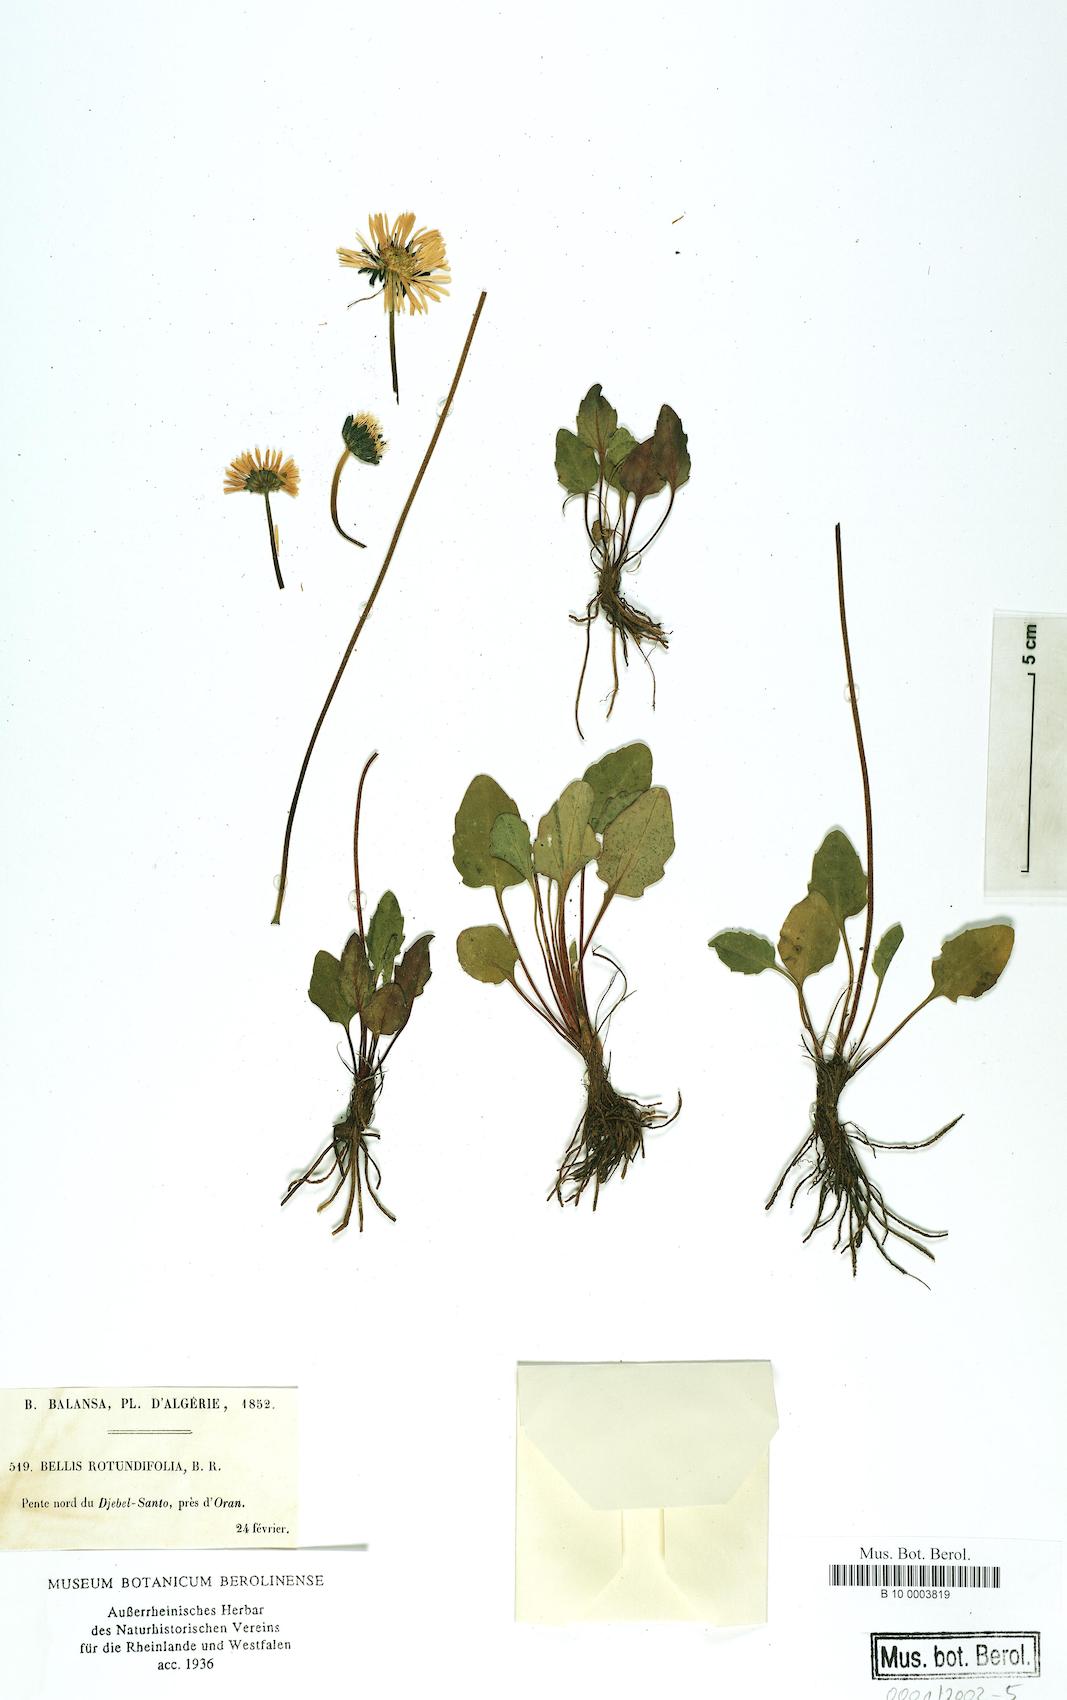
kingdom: Plantae
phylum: Tracheophyta
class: Magnoliopsida
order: Asterales
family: Asteraceae
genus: Bellis
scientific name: Bellis rotundifolia
